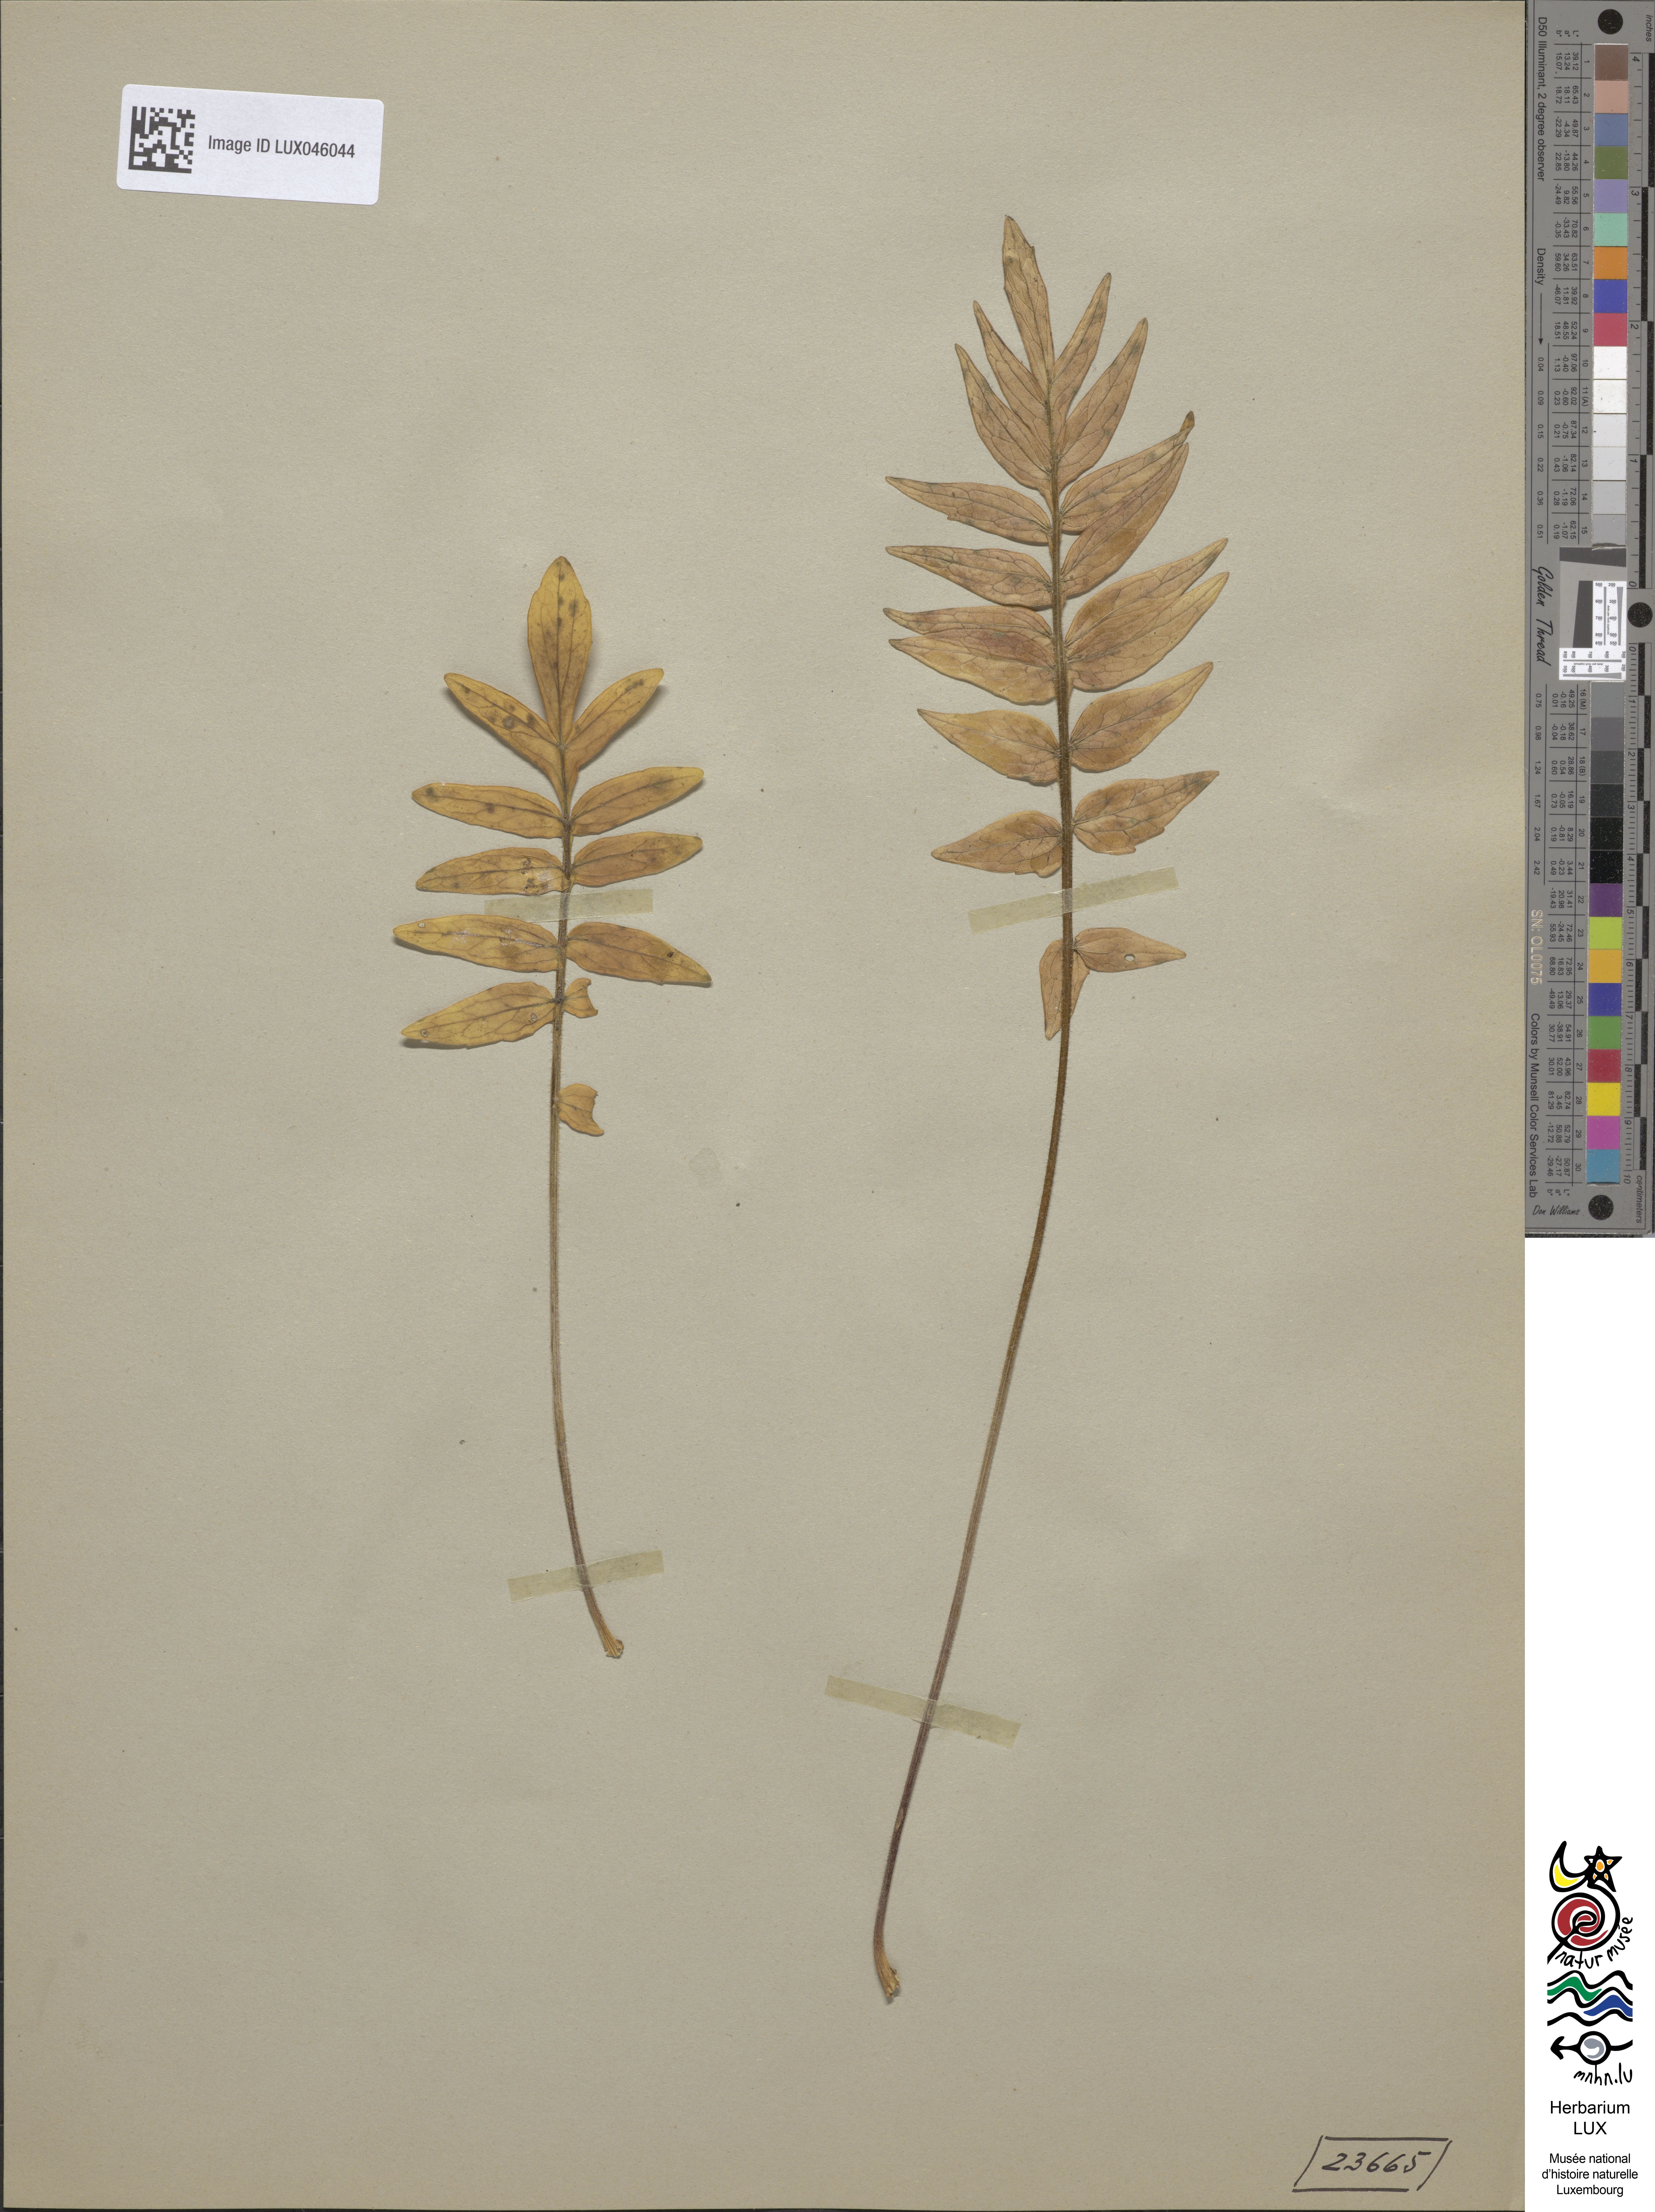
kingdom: Plantae
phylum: Tracheophyta
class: Magnoliopsida
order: Dipsacales
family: Caprifoliaceae
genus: Valeriana
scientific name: Valeriana pratensis
